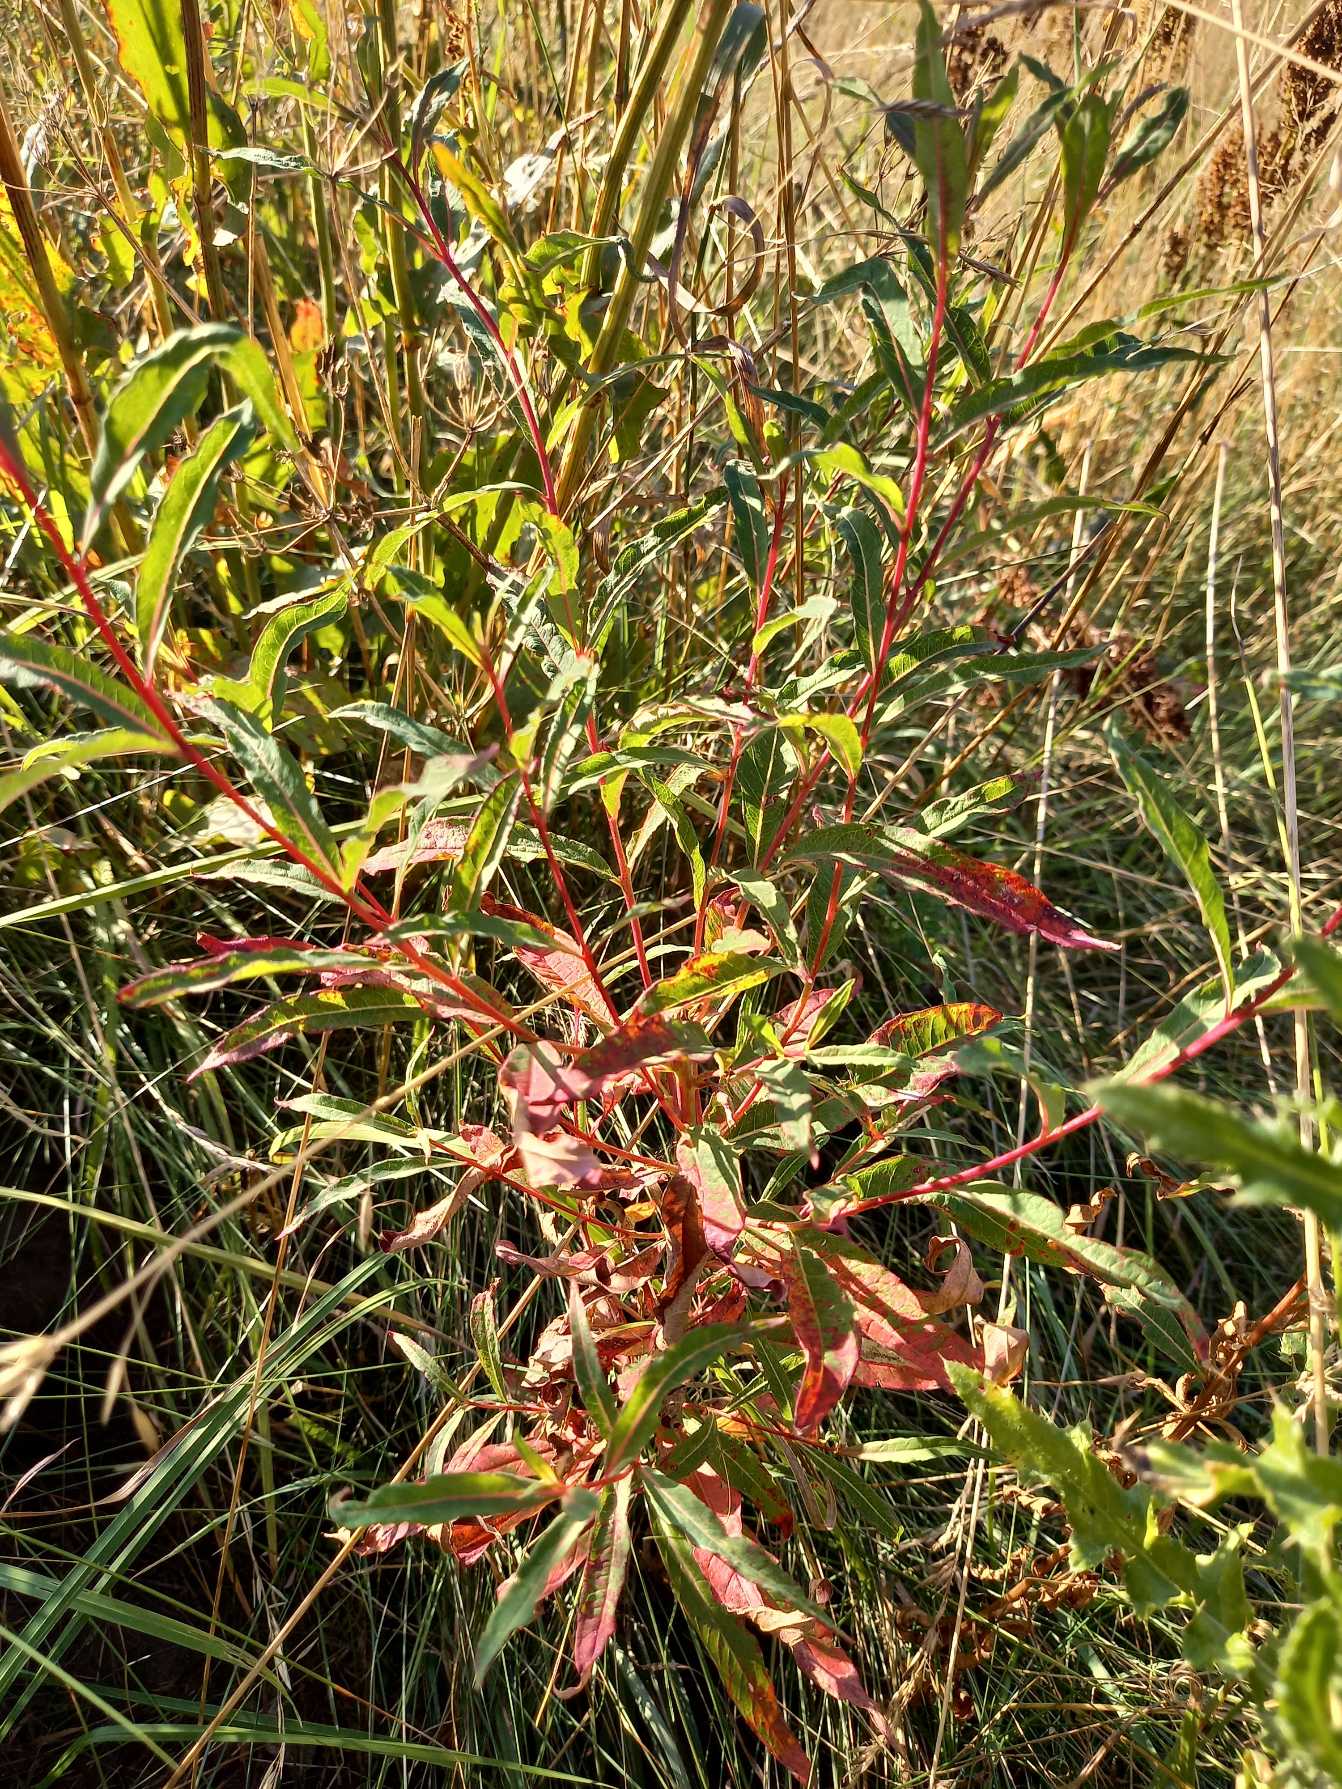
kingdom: Plantae
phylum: Tracheophyta
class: Magnoliopsida
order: Myrtales
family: Onagraceae
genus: Chamaenerion
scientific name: Chamaenerion angustifolium
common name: Gederams
